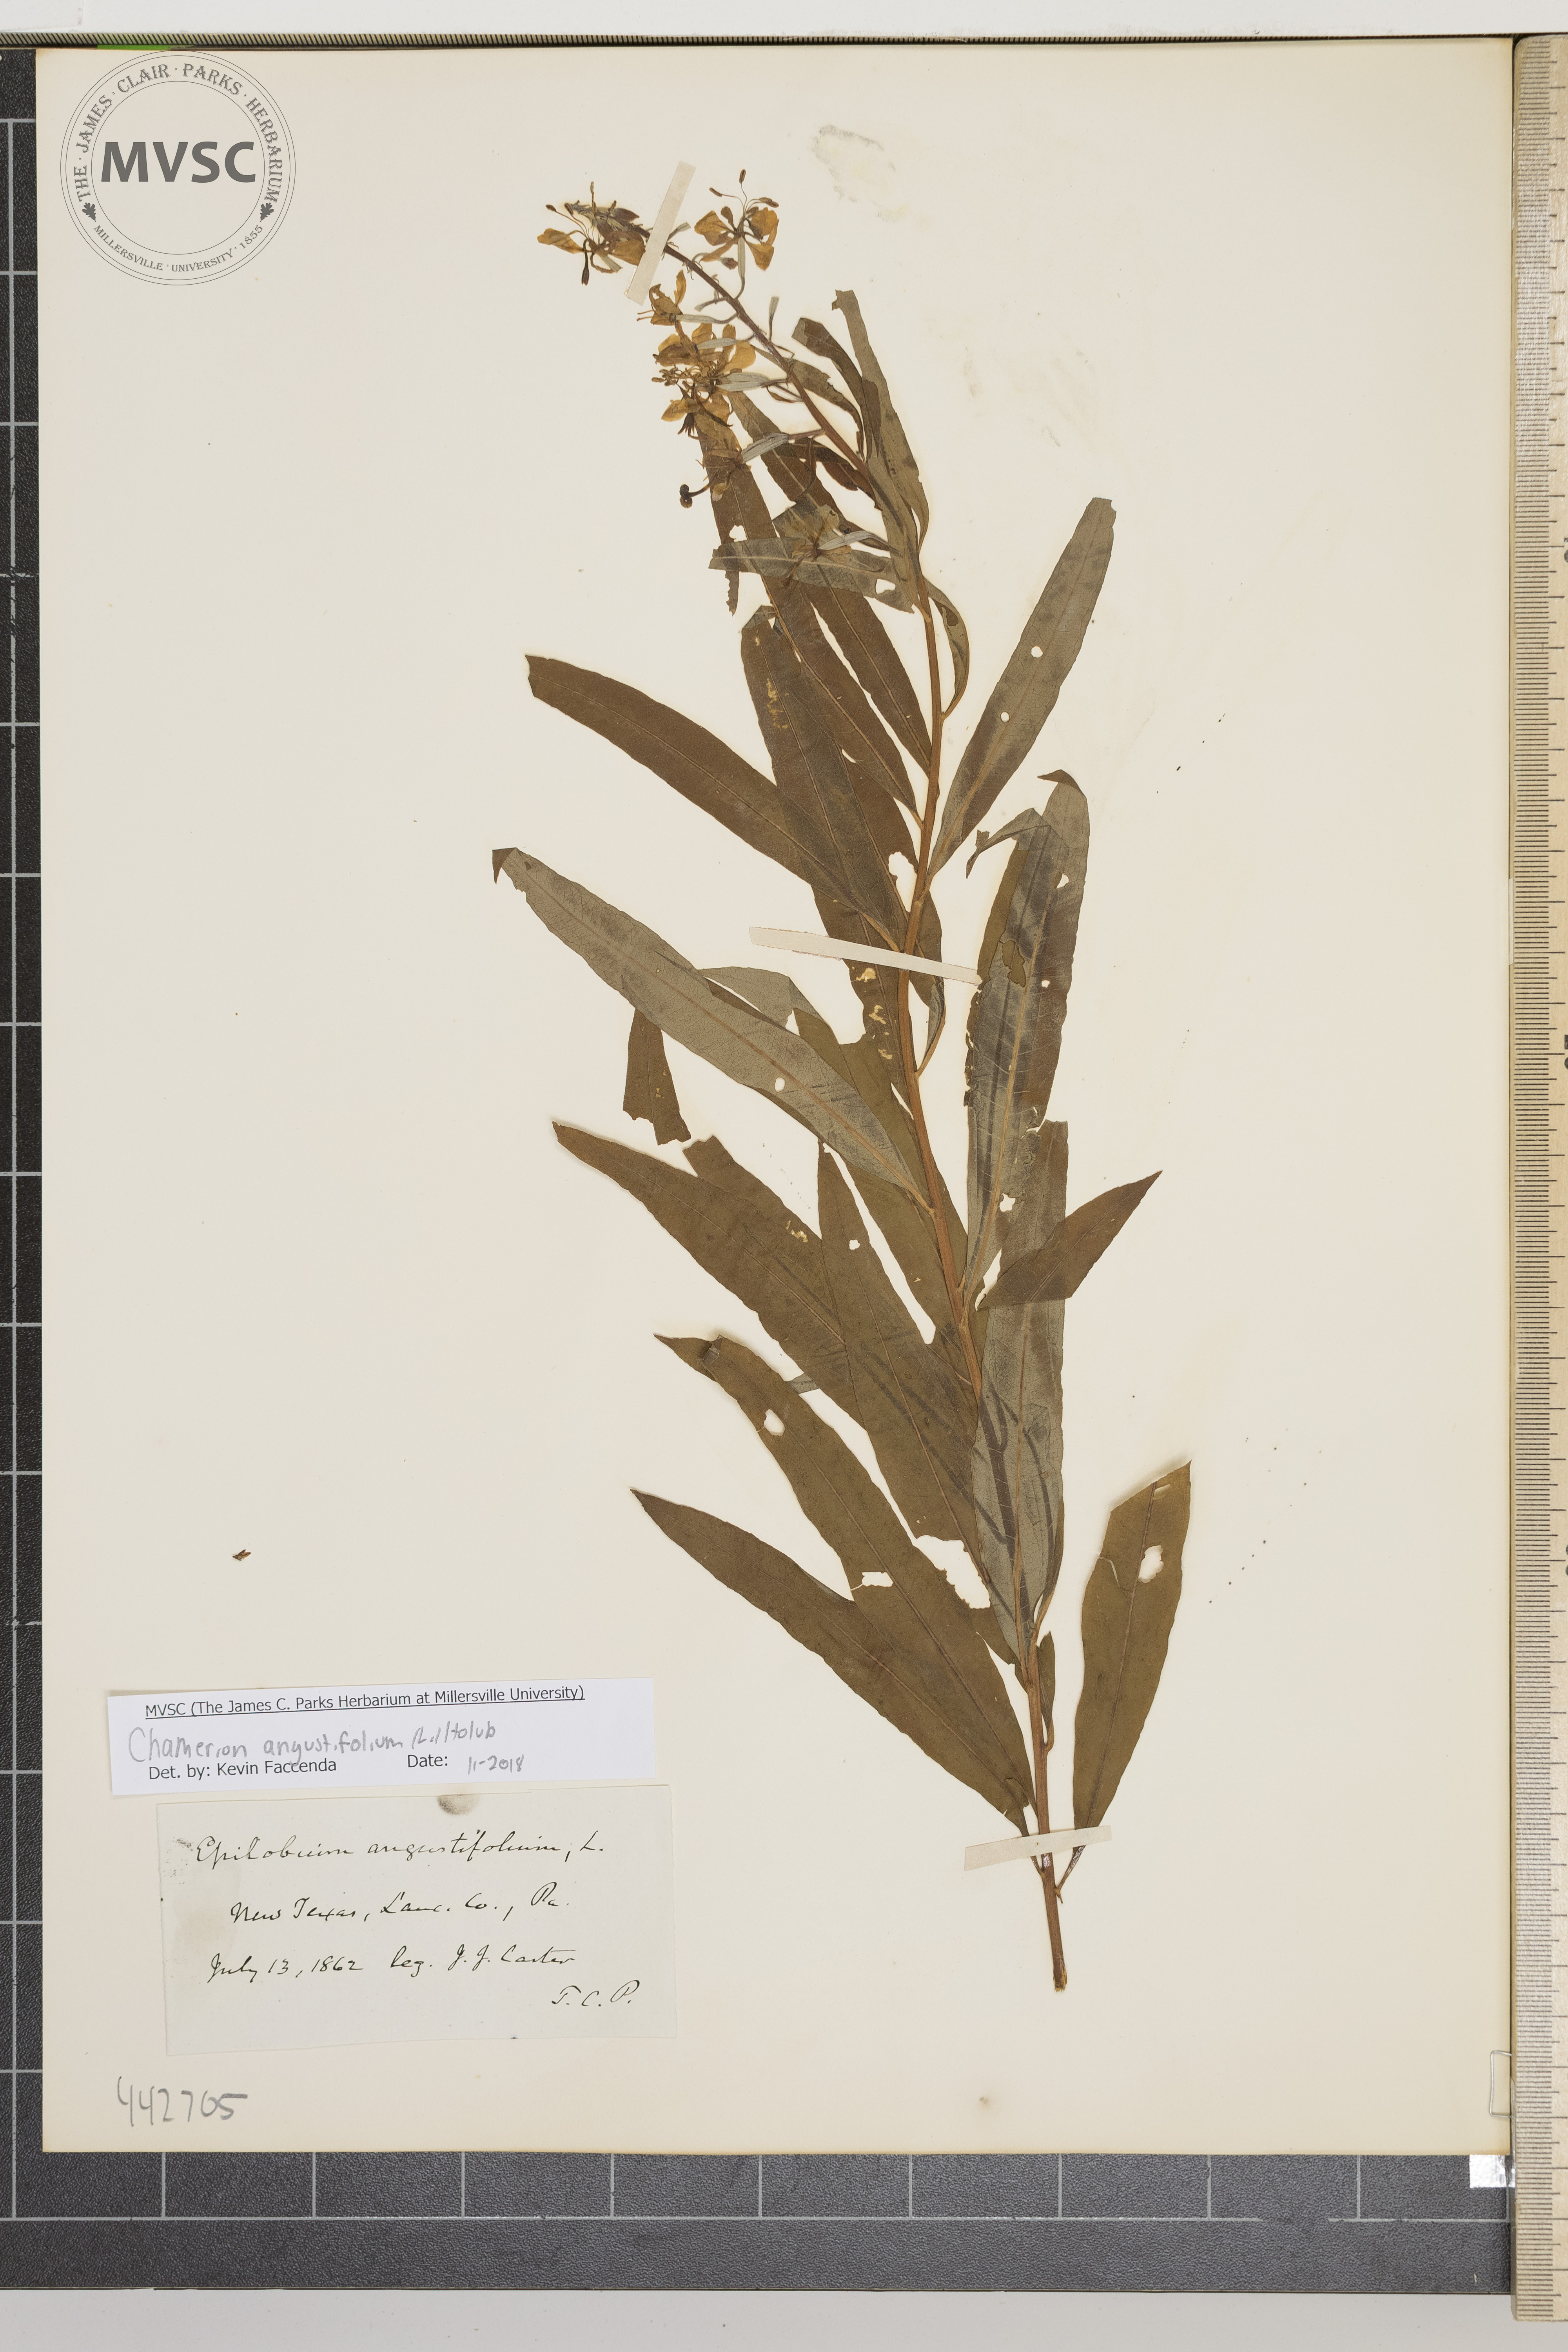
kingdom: Plantae
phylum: Tracheophyta
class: Magnoliopsida
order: Myrtales
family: Onagraceae
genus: Chamaenerion
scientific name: Chamaenerion angustifolium
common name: Fireweed
